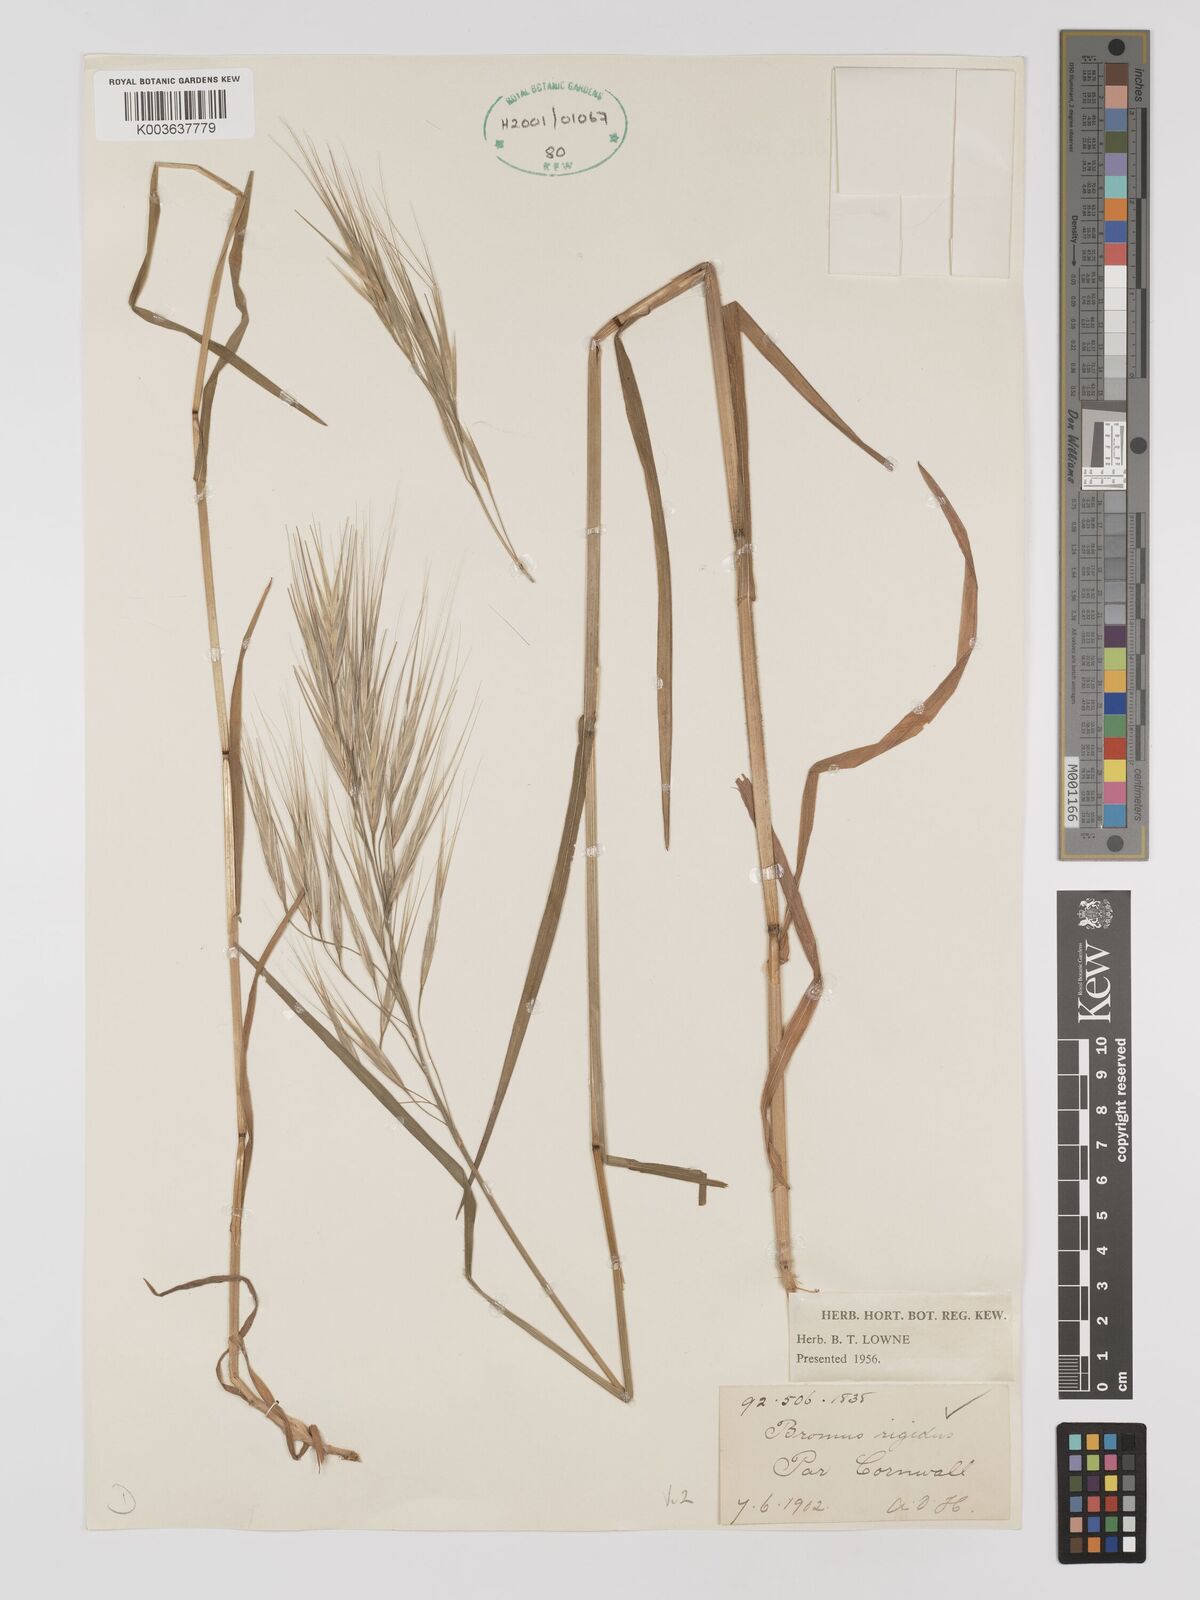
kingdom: Plantae
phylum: Tracheophyta
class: Liliopsida
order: Poales
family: Poaceae
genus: Bromus
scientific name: Bromus
